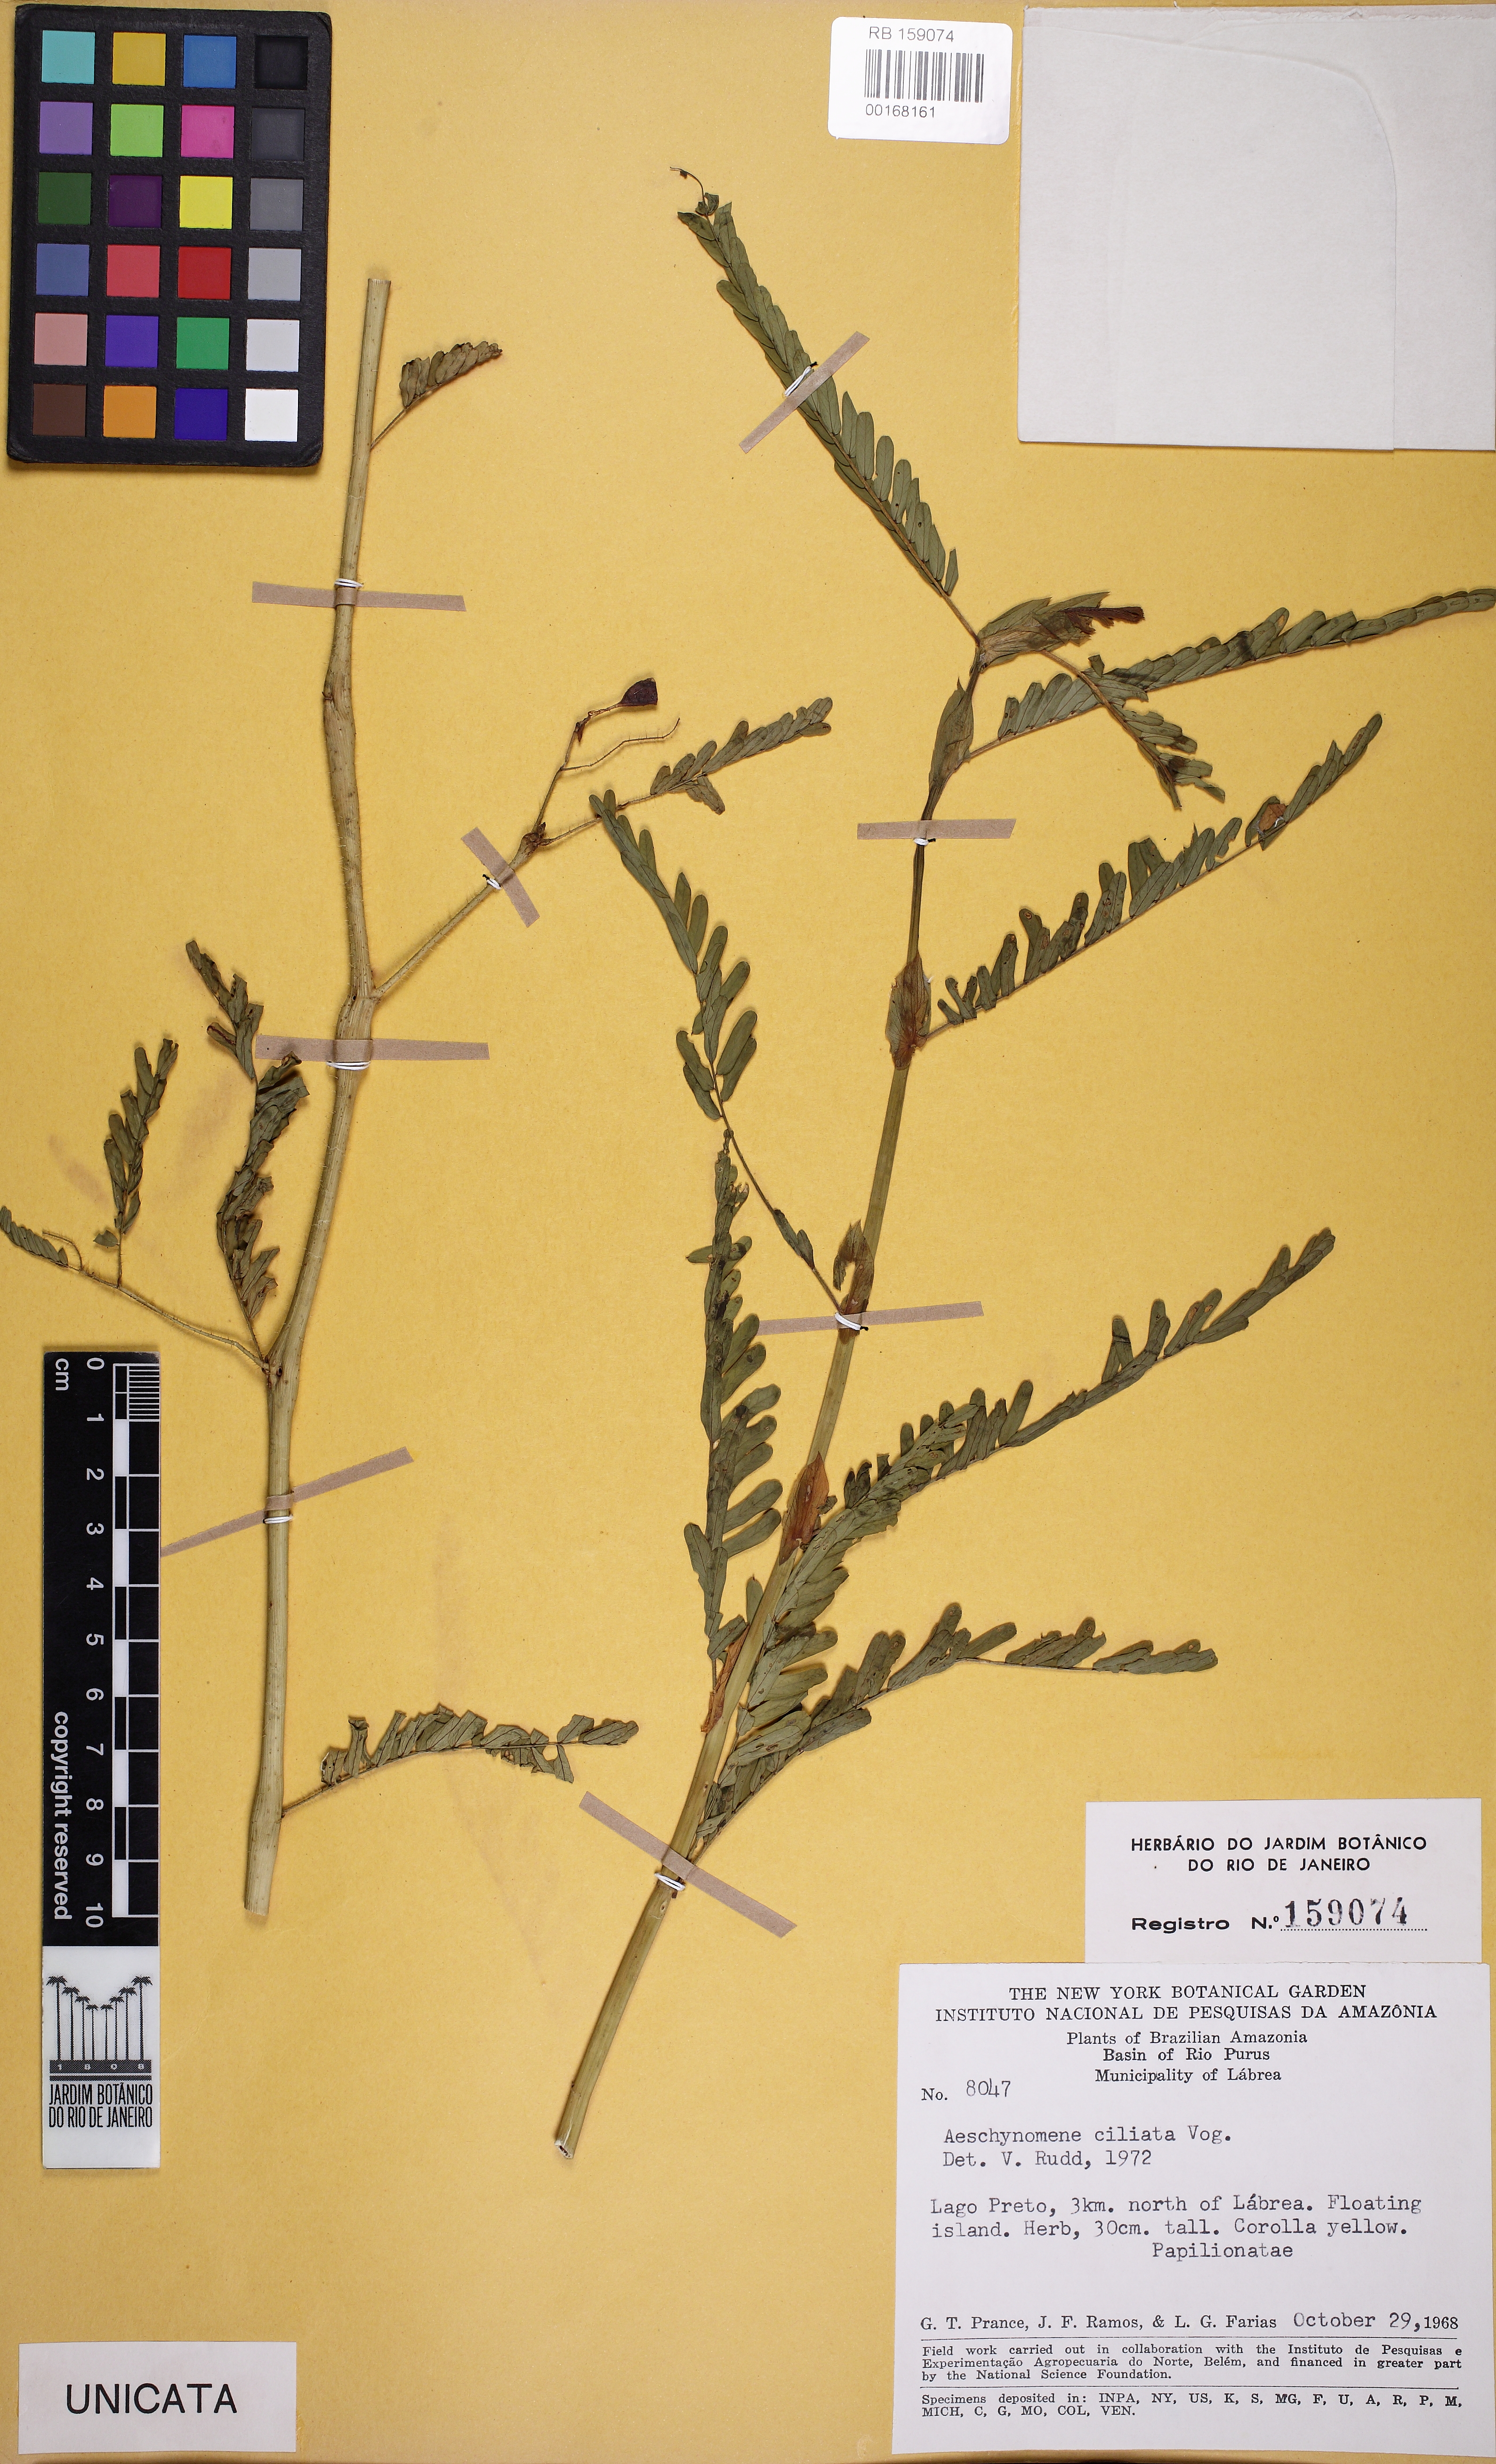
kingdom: Plantae
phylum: Tracheophyta
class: Magnoliopsida
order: Fabales
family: Fabaceae
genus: Aeschynomene
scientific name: Aeschynomene ciliata
